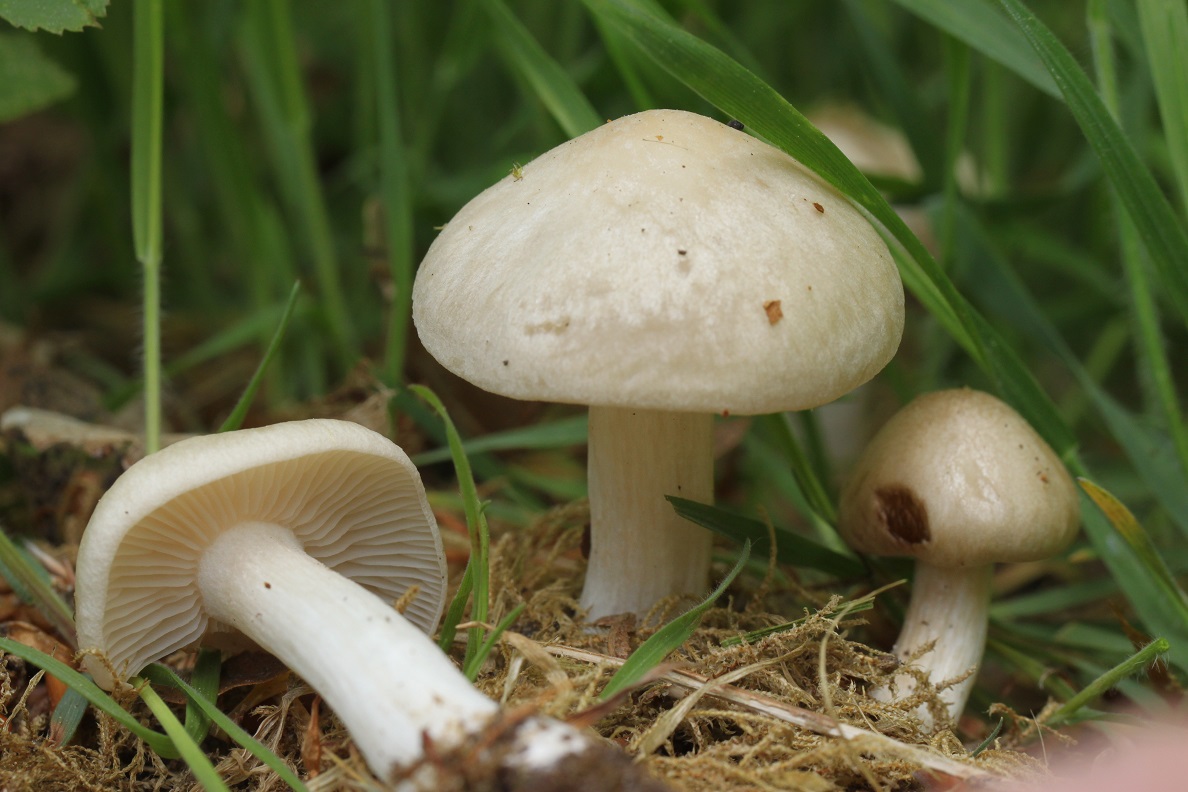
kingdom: Fungi
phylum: Basidiomycota
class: Agaricomycetes
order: Agaricales
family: Entolomataceae
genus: Entoloma
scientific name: Entoloma sepium
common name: slåen-rødblad
